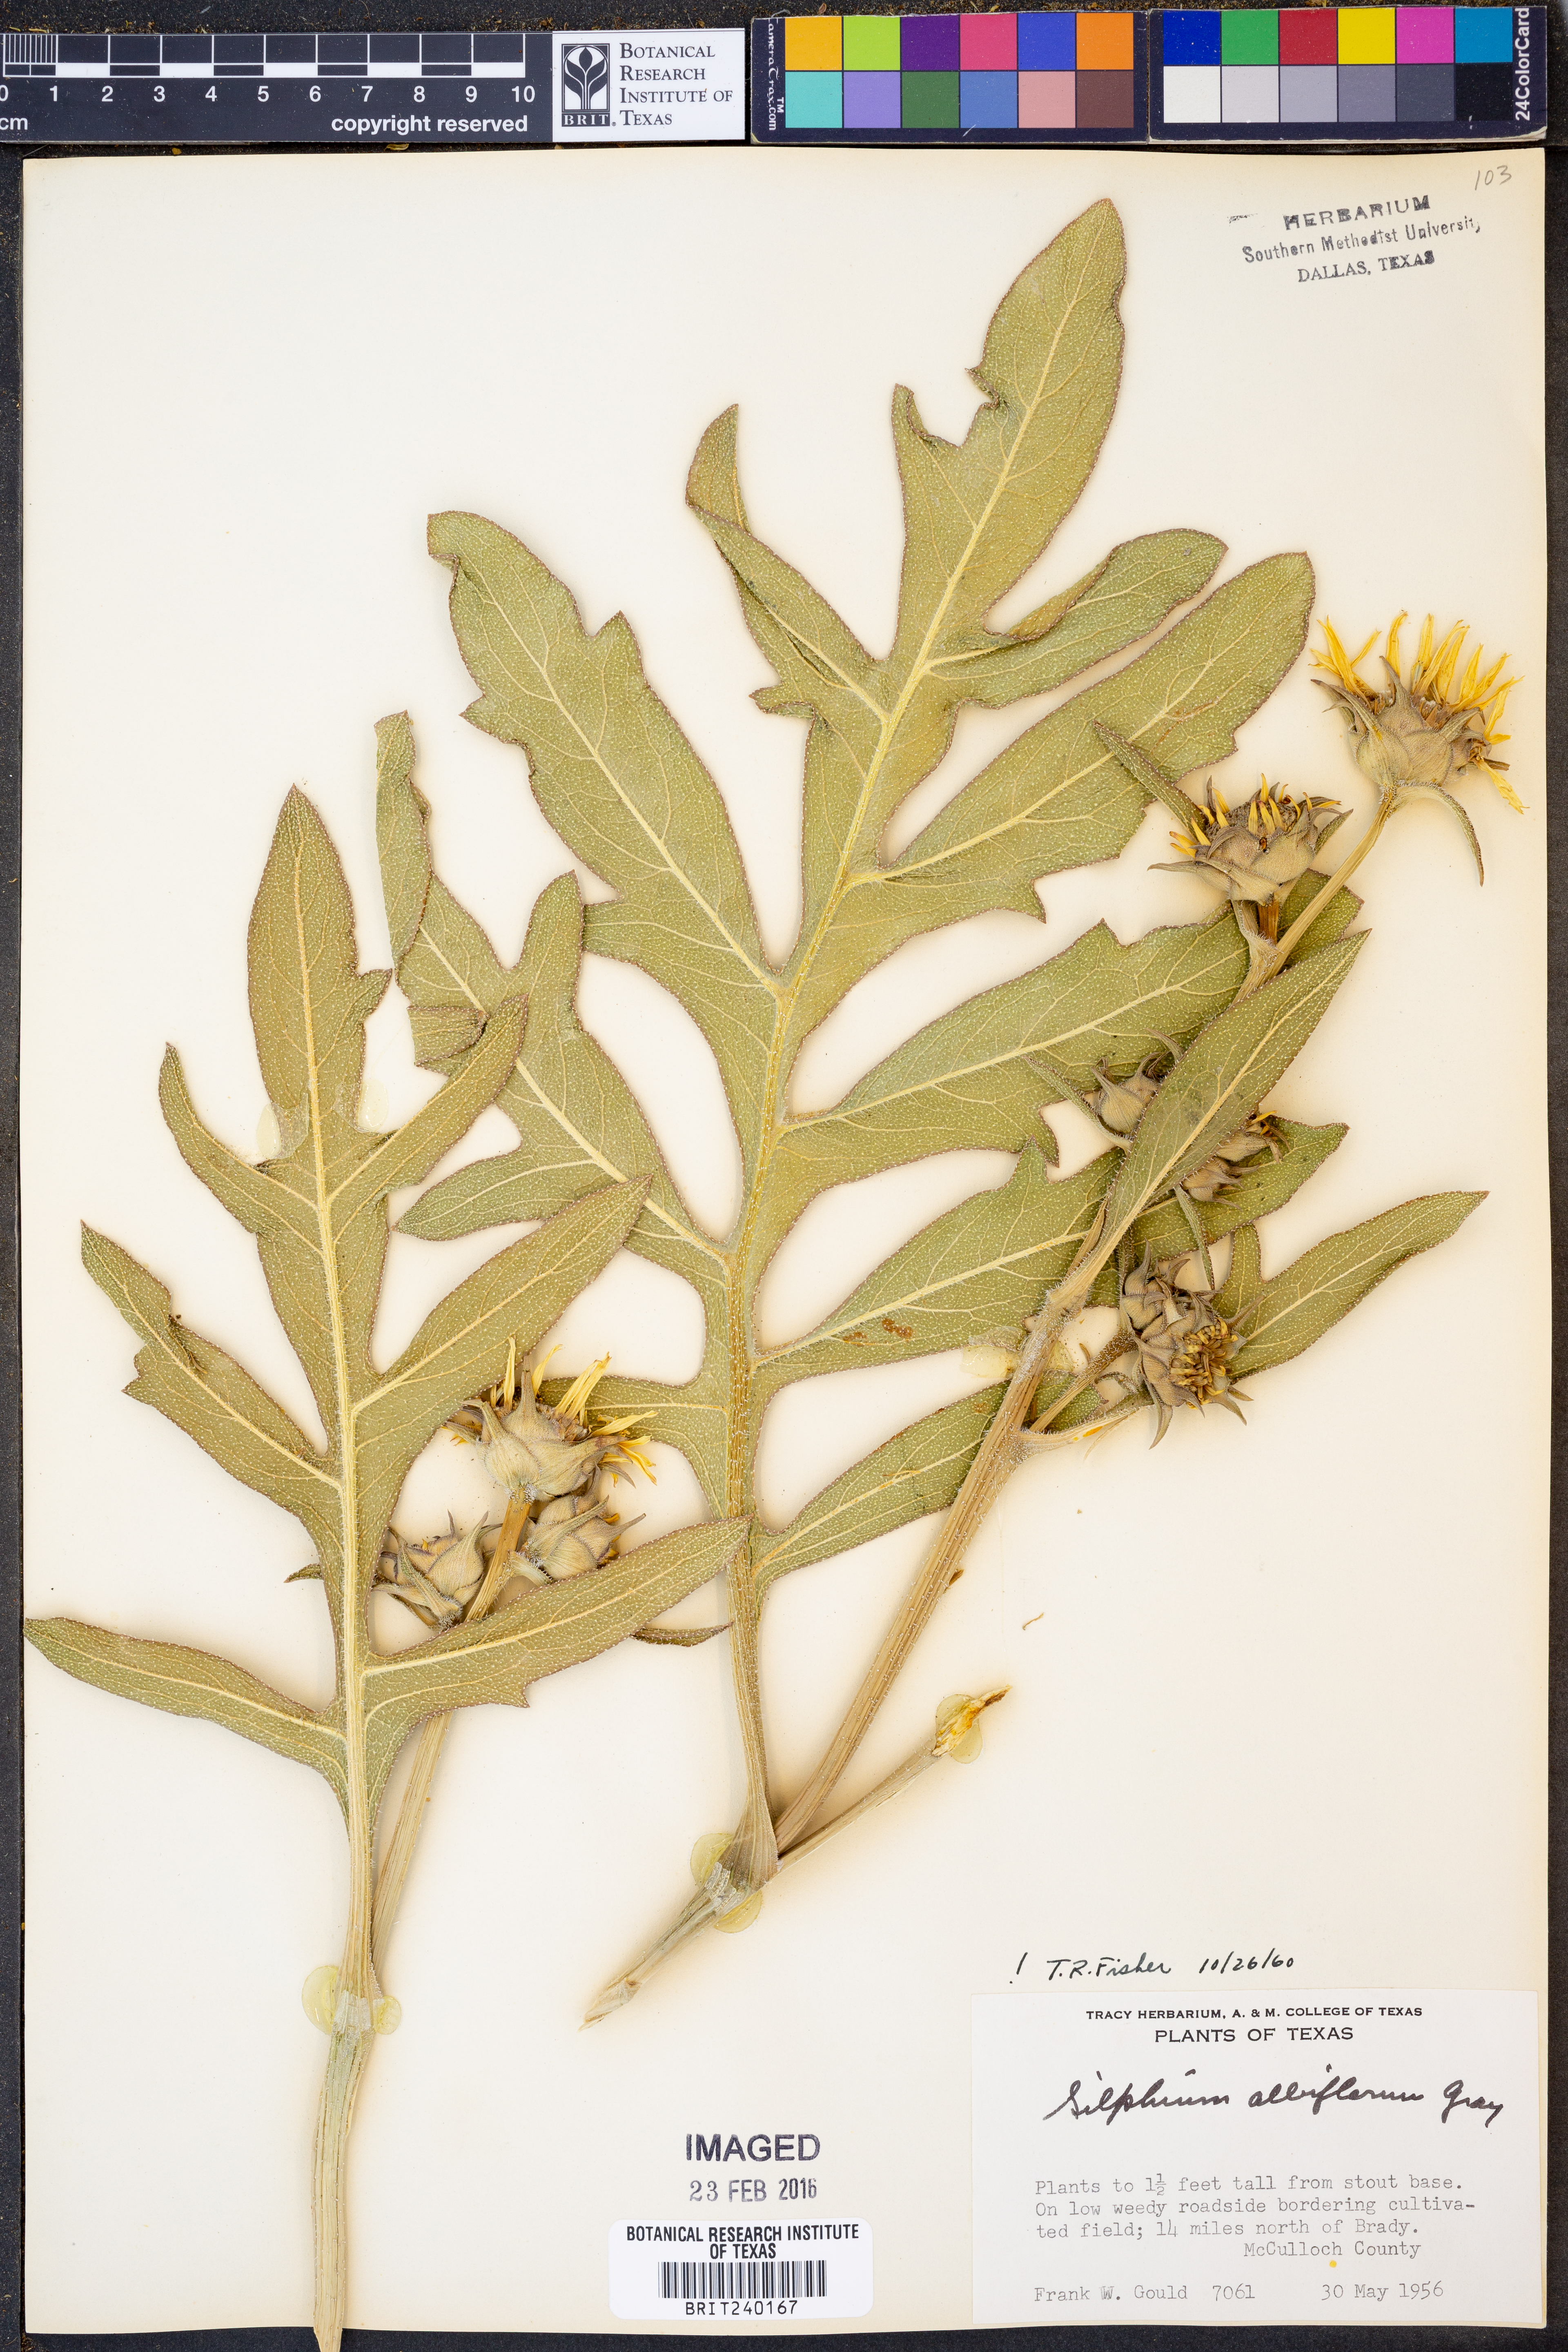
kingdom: Plantae
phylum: Tracheophyta
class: Magnoliopsida
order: Asterales
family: Asteraceae
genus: Silphium
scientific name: Silphium albiflorum
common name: White rosinweed
